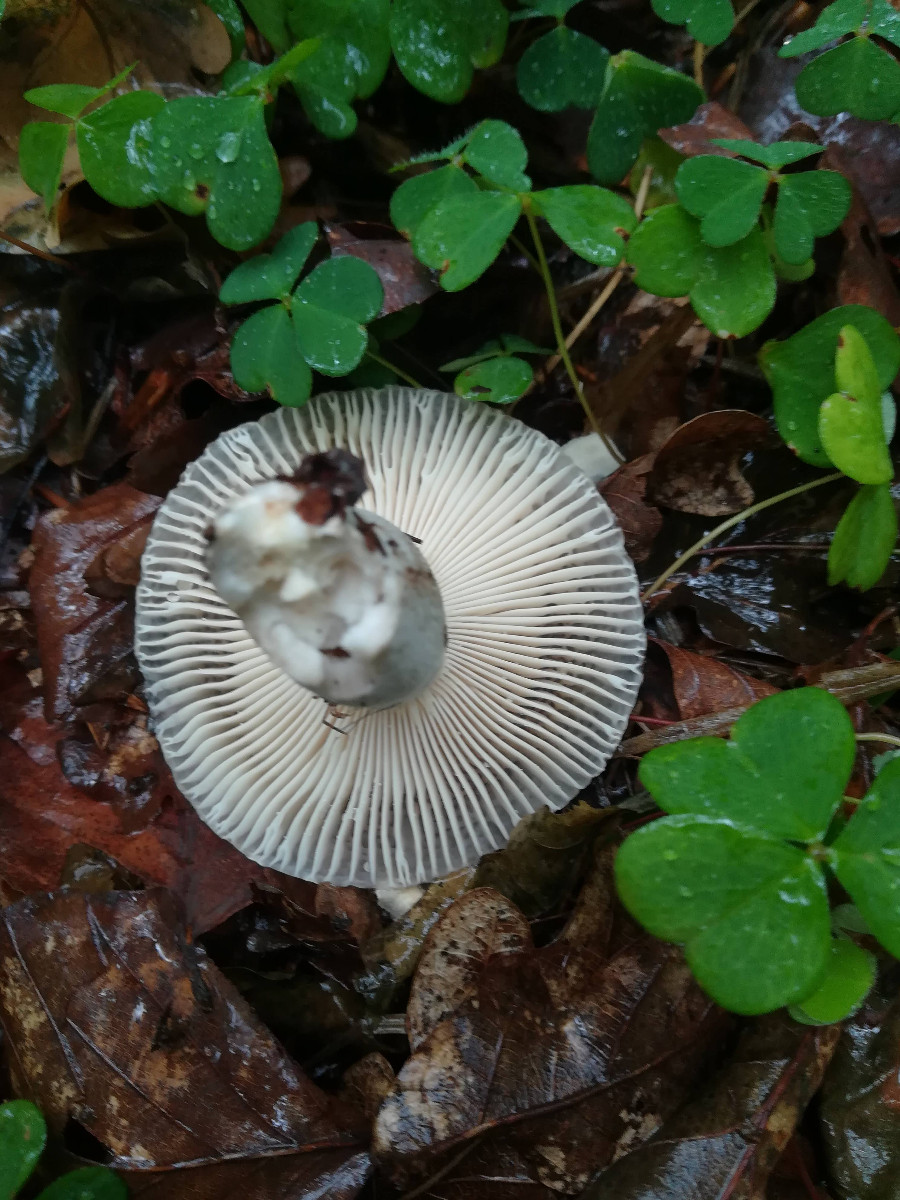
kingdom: Fungi
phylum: Basidiomycota
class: Agaricomycetes
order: Russulales
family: Russulaceae
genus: Russula
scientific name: Russula amoenolens
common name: skarp kam-skørhat
